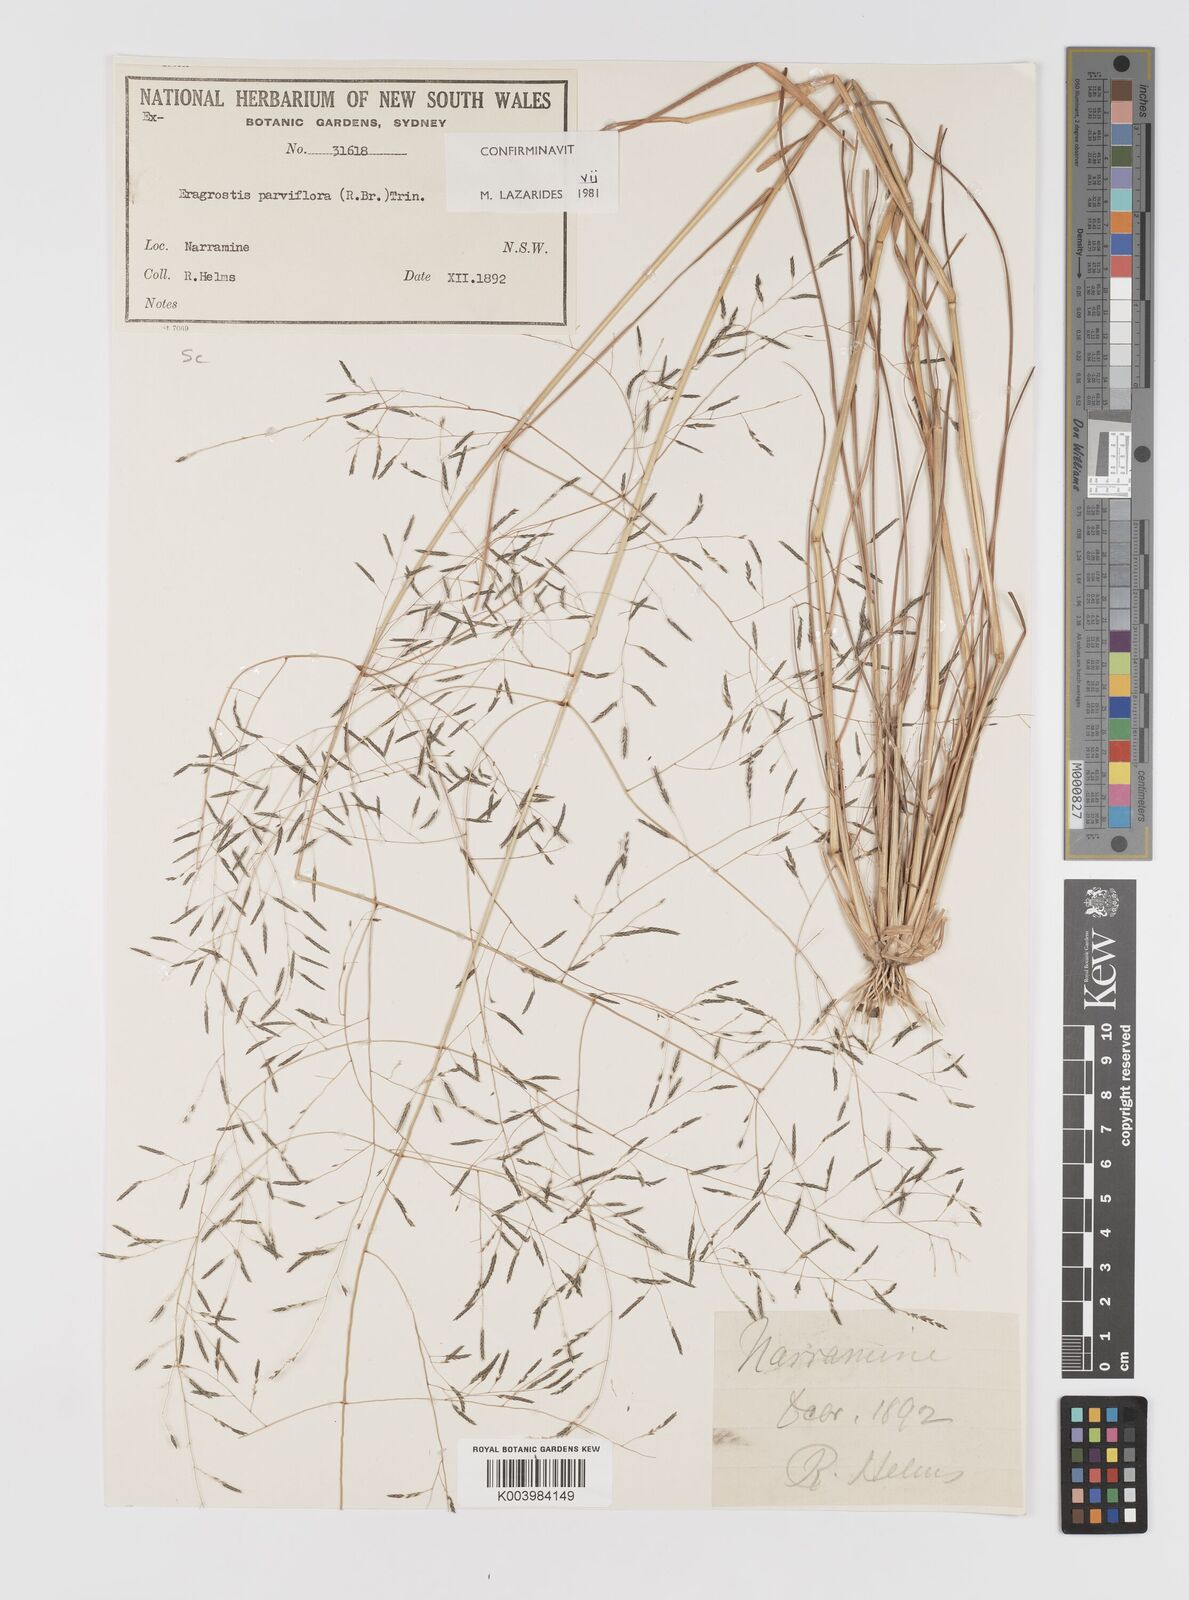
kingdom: Plantae
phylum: Tracheophyta
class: Liliopsida
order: Poales
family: Poaceae
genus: Eragrostis
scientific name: Eragrostis parviflora
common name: Weeping love-grass
